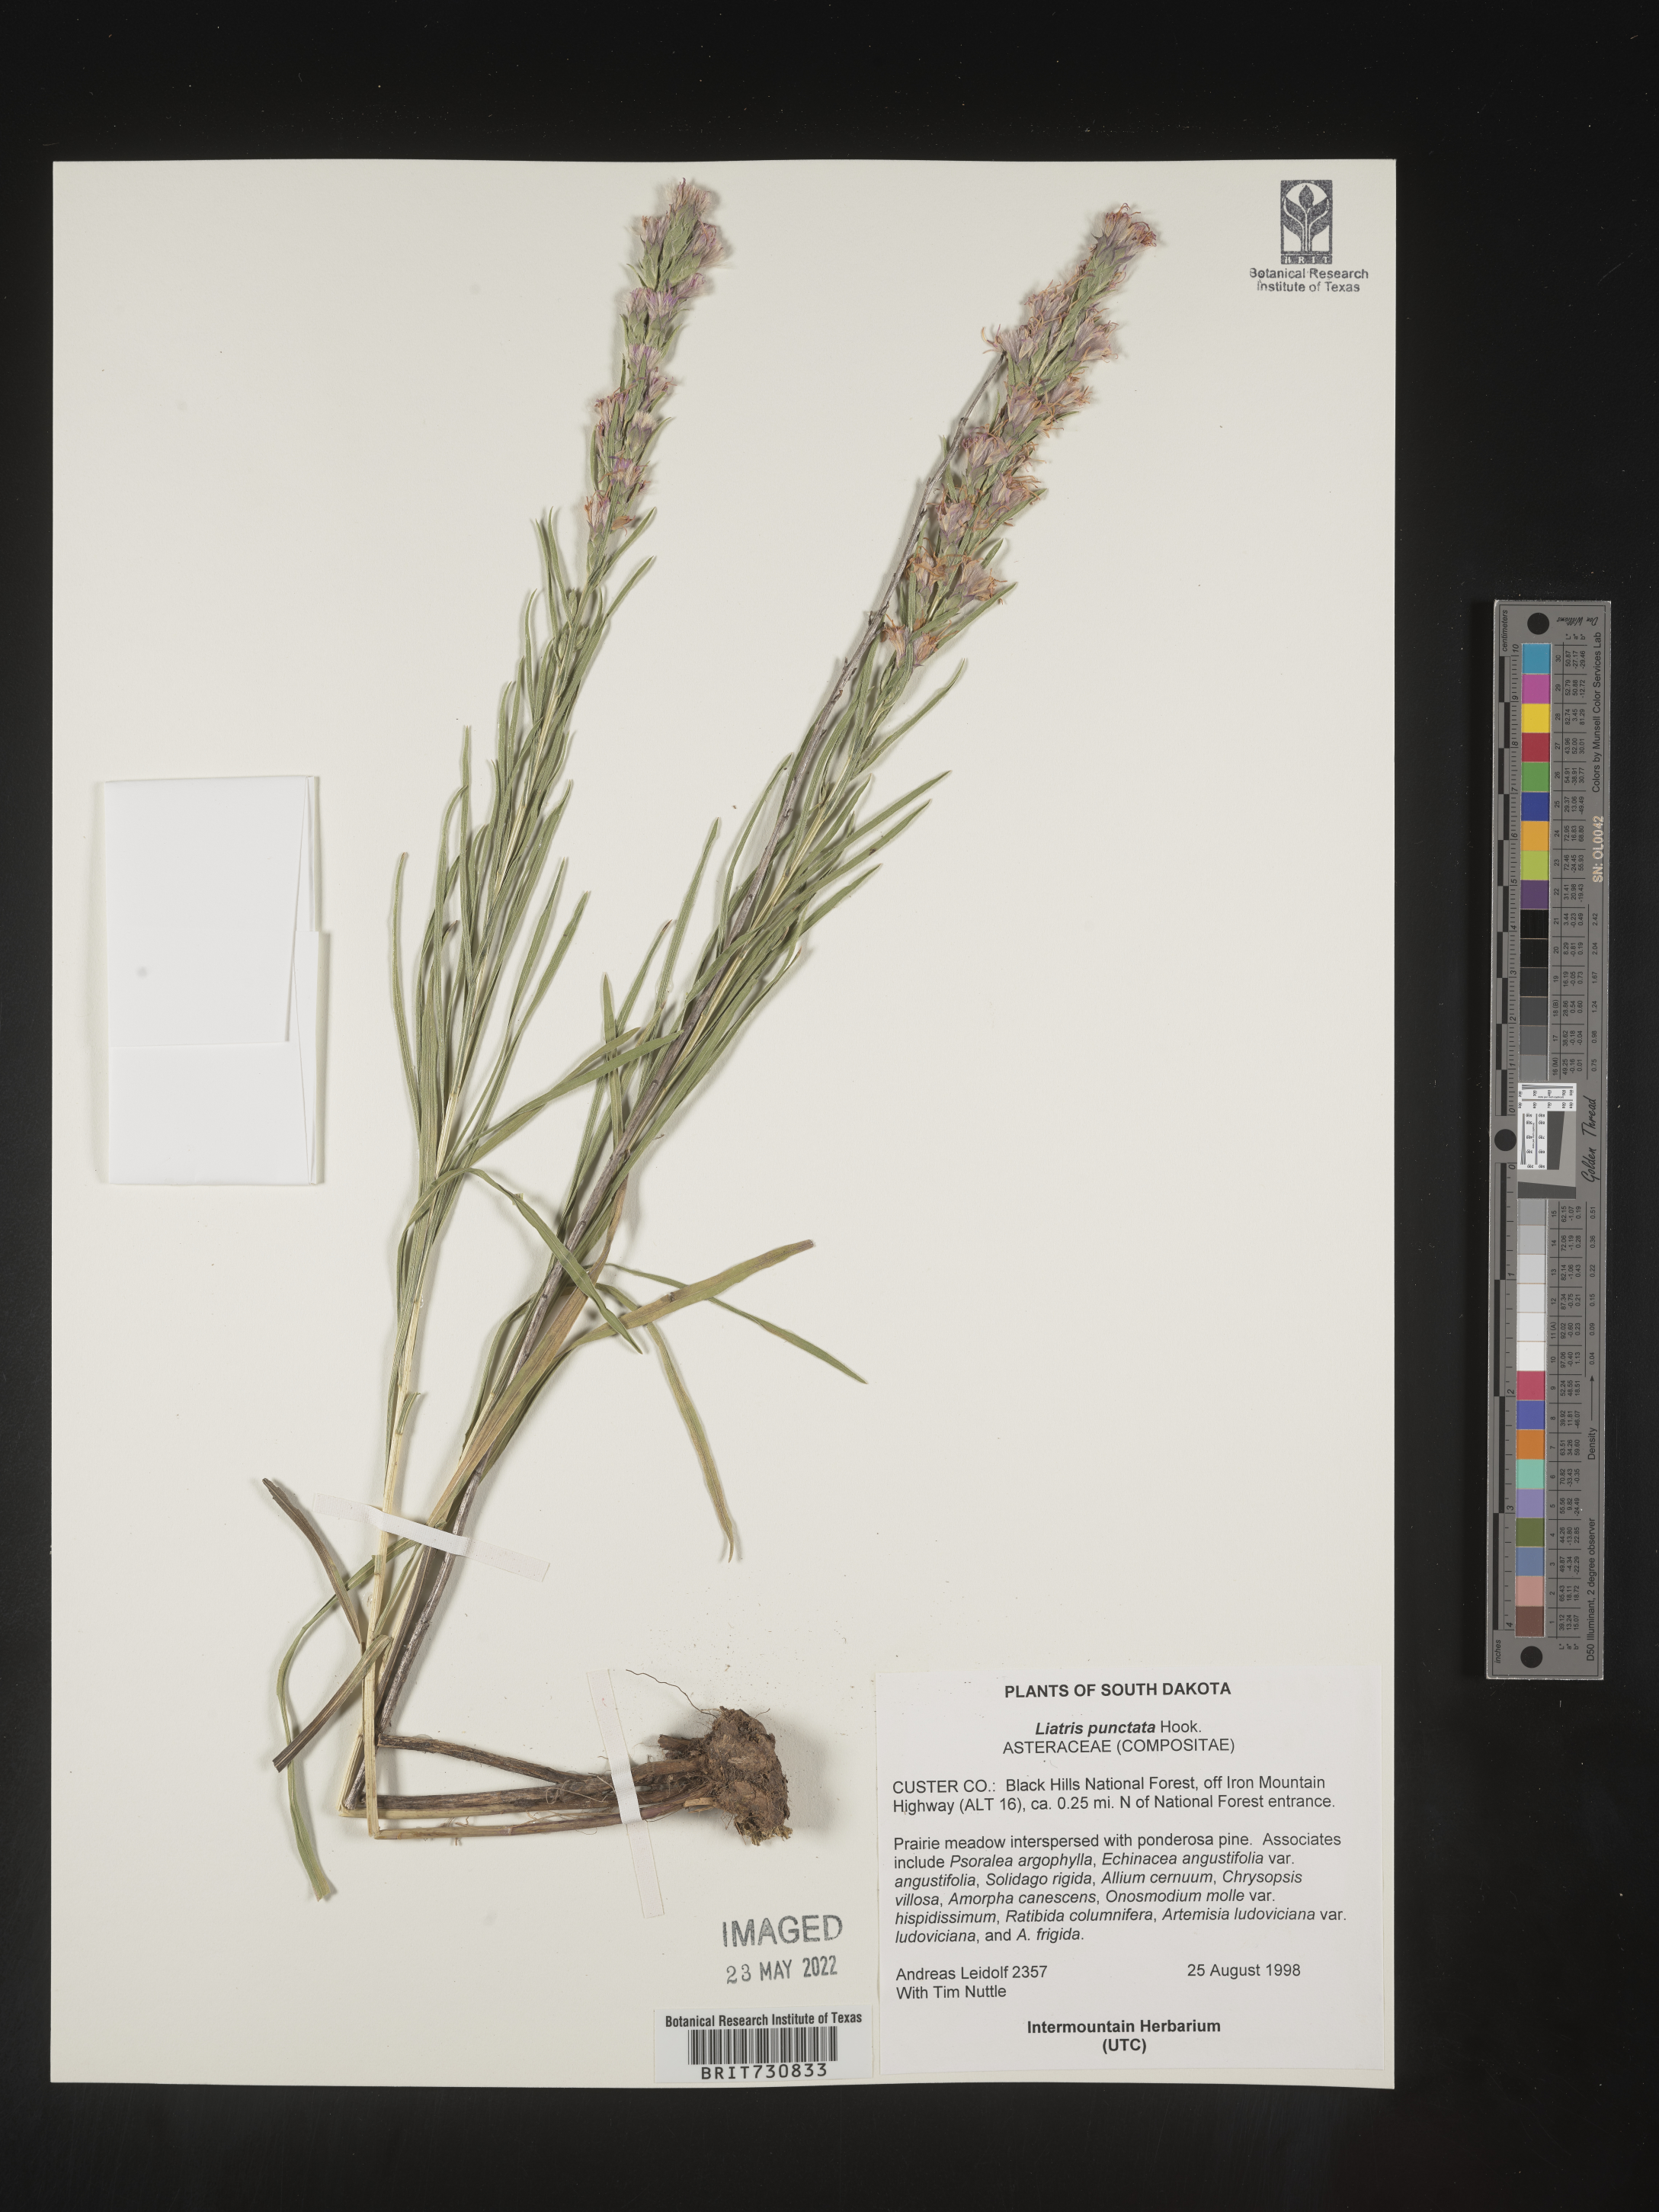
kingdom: Plantae
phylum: Tracheophyta
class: Magnoliopsida
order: Asterales
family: Asteraceae
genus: Liatris
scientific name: Liatris punctata
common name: Dotted gayfeather
